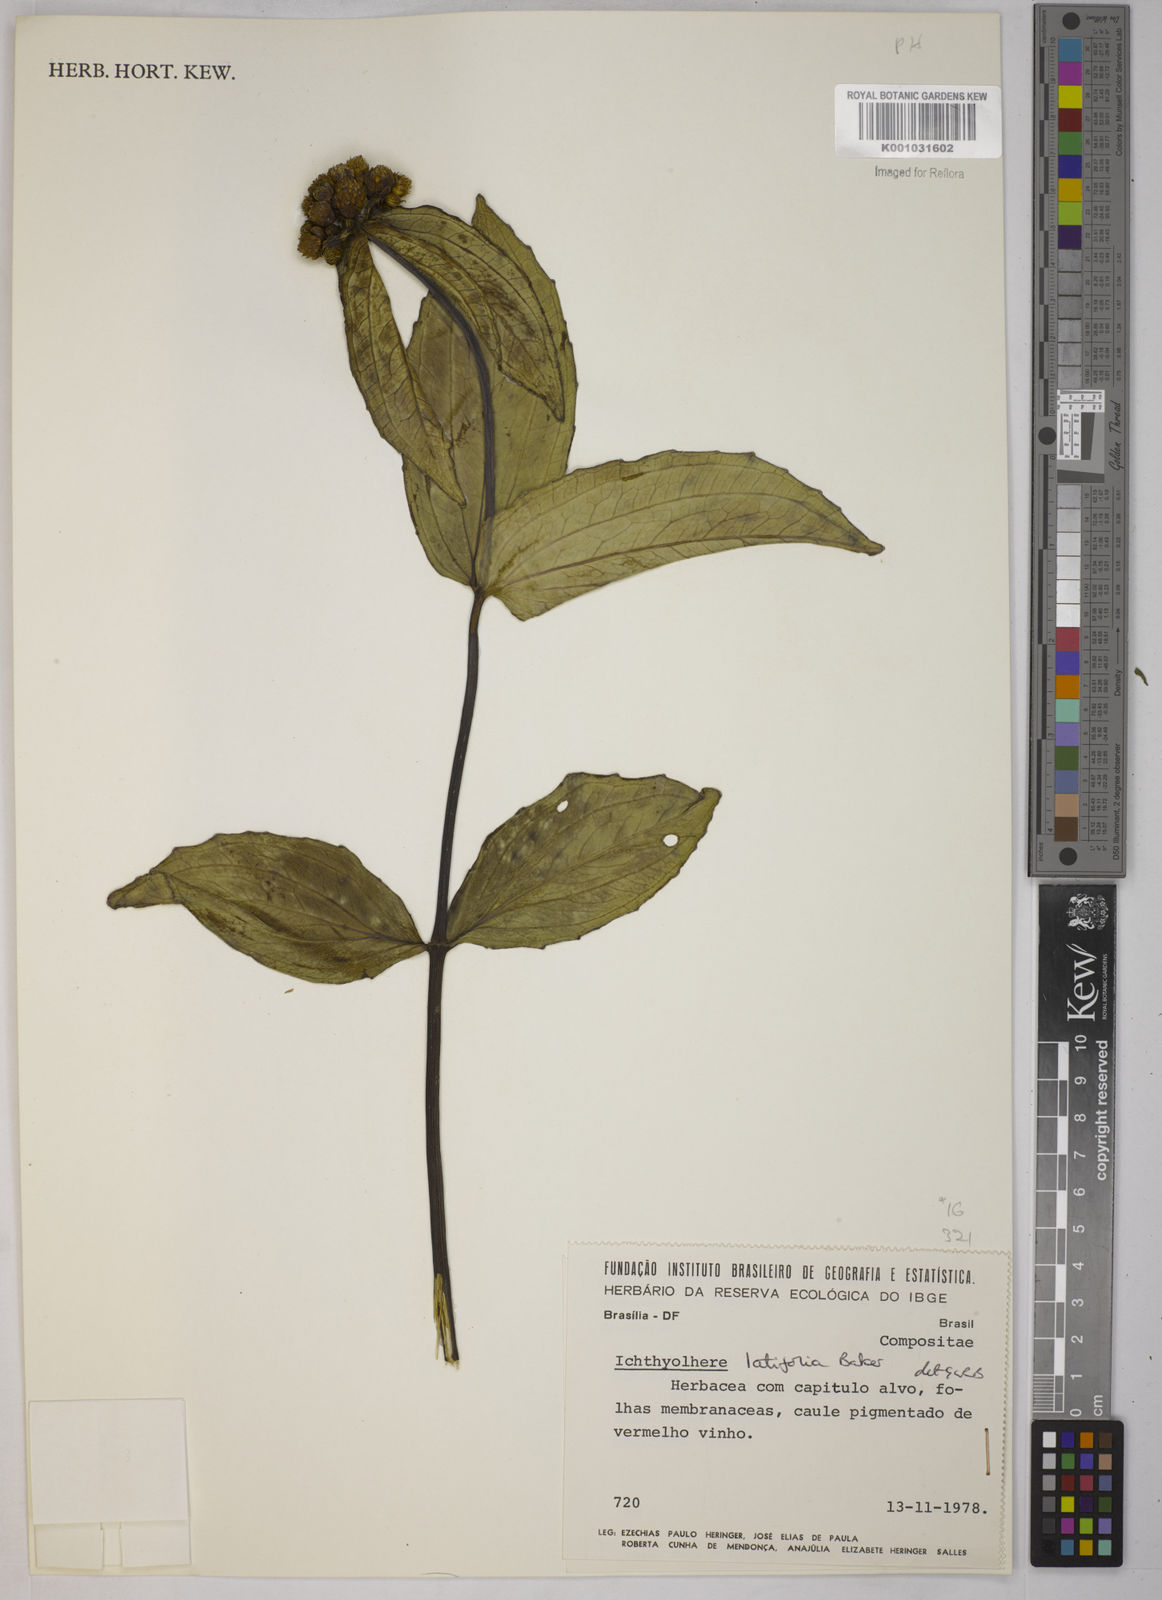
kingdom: Plantae
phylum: Tracheophyta
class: Magnoliopsida
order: Asterales
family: Asteraceae
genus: Ichthyothere
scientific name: Ichthyothere latifolia
